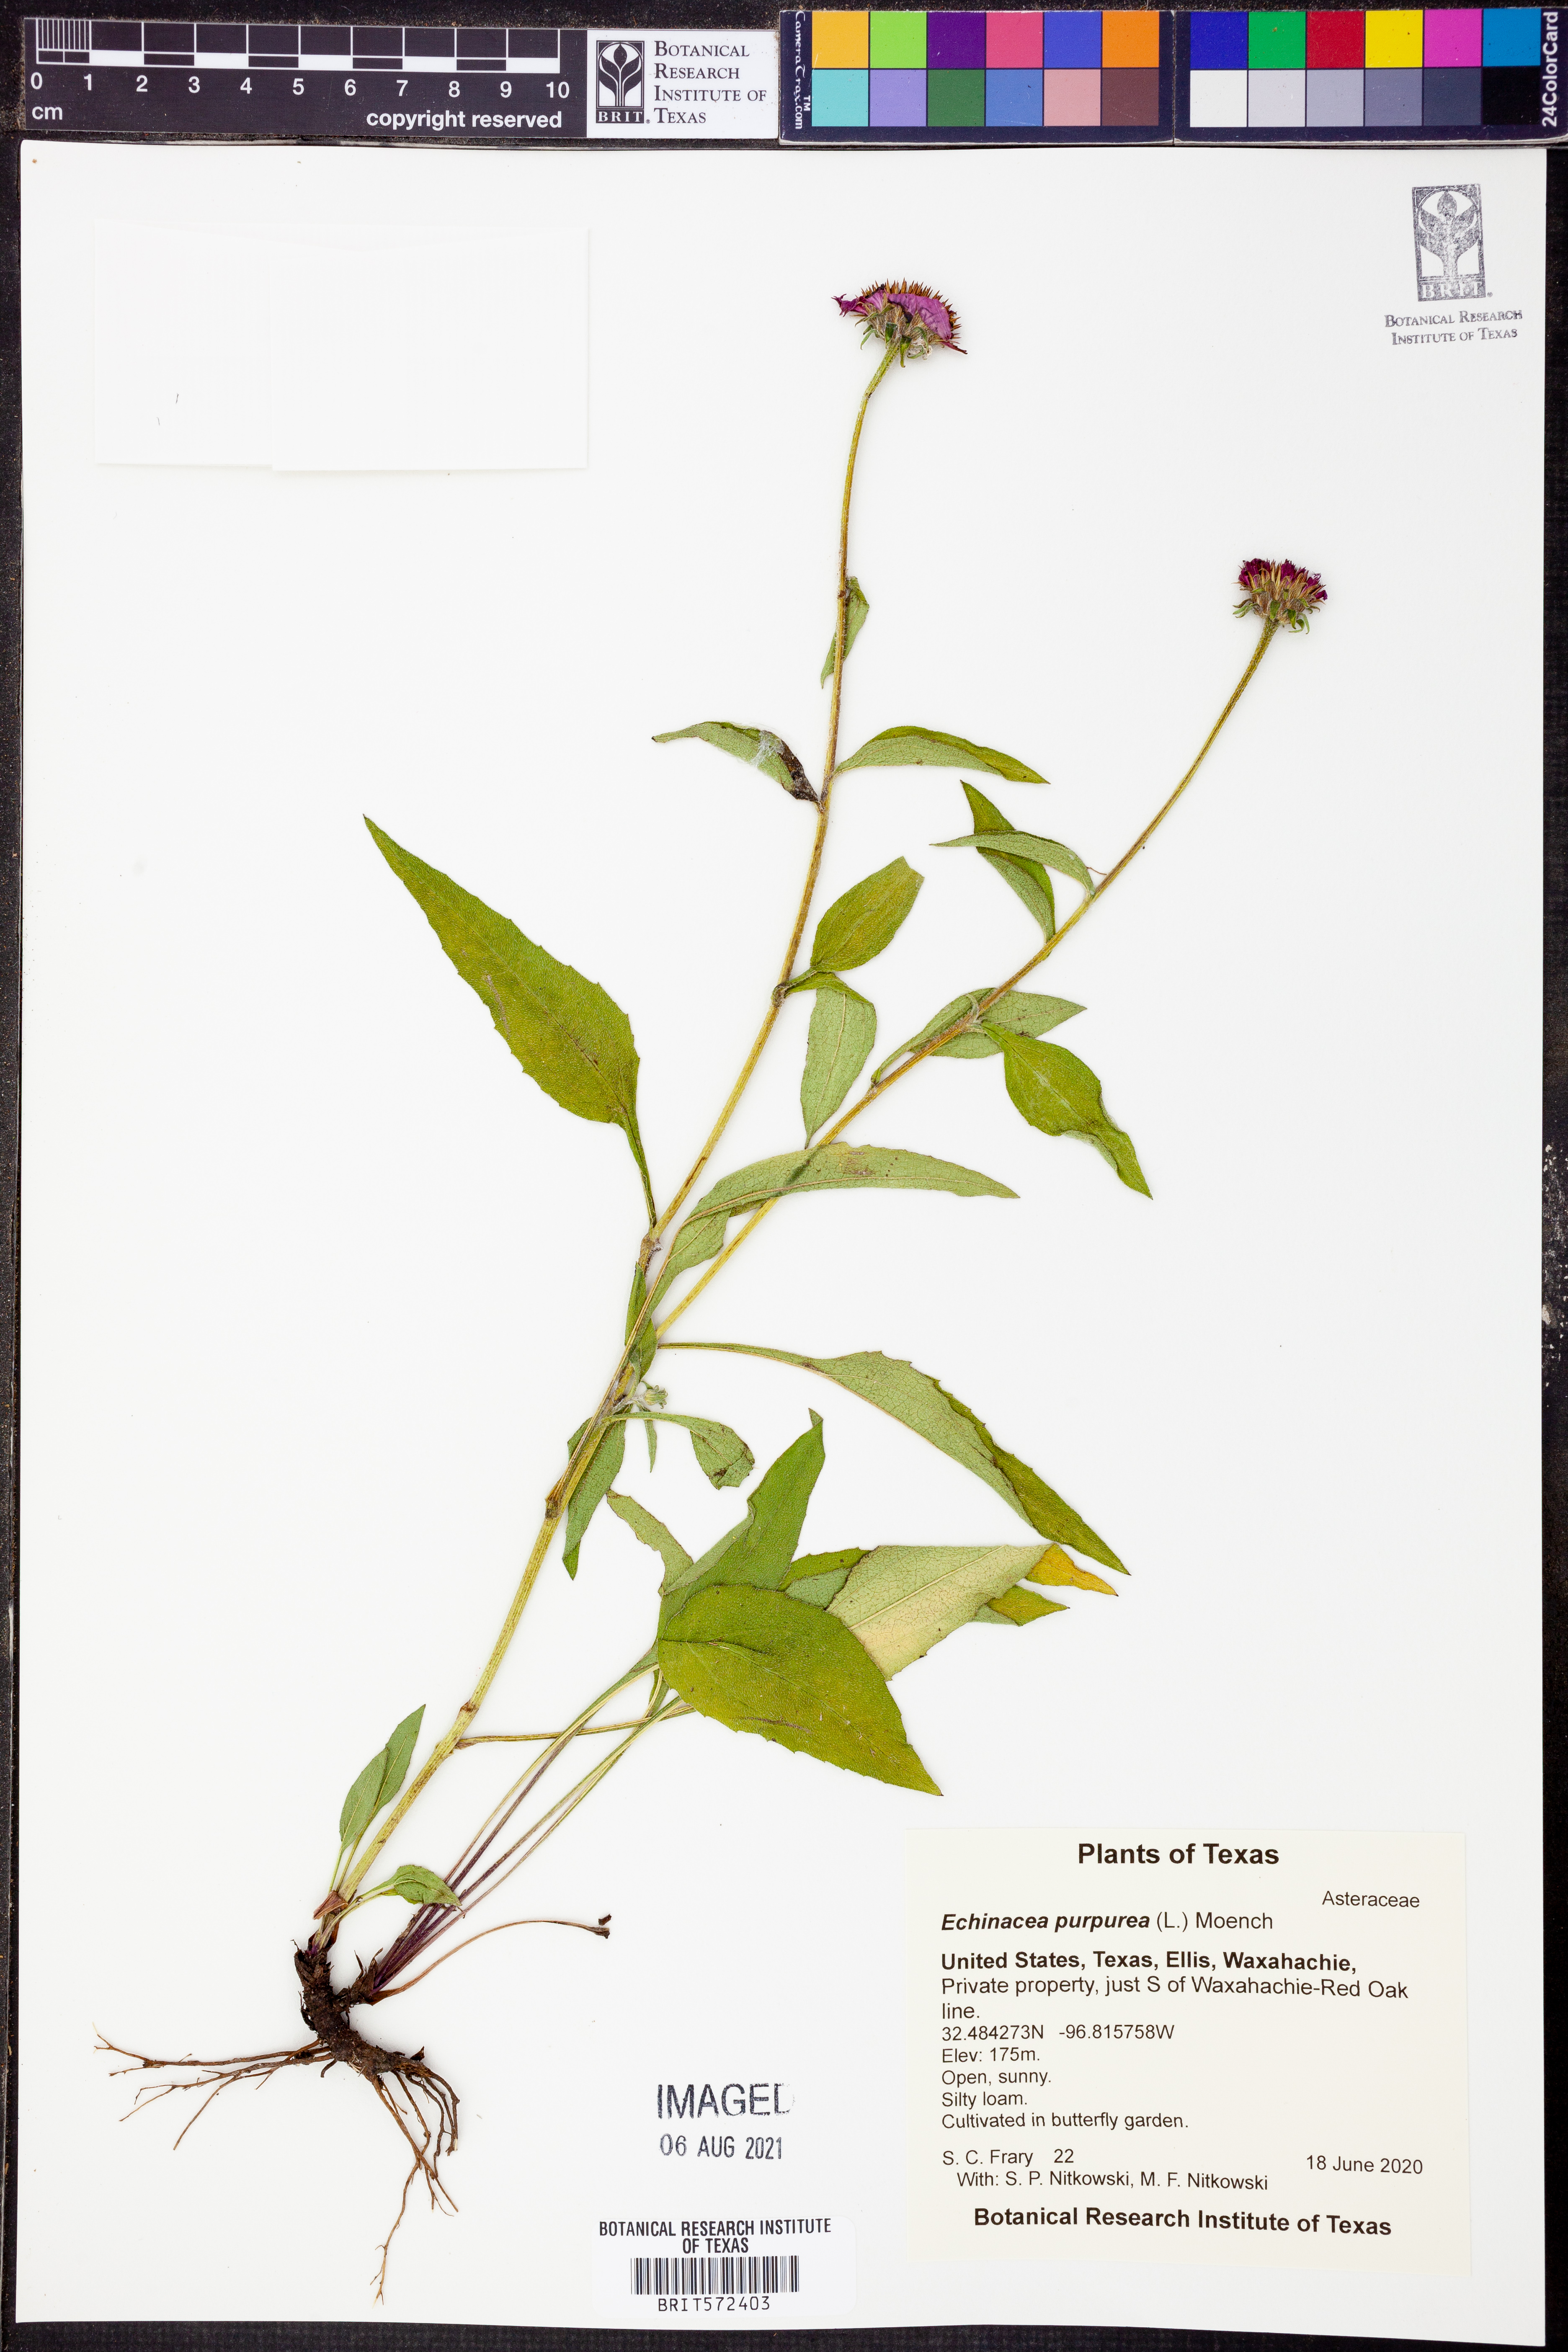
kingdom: Plantae
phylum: Tracheophyta
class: Magnoliopsida
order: Asterales
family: Asteraceae
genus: Echinacea
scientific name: Echinacea purpurea
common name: Broad-leaved purple coneflower
